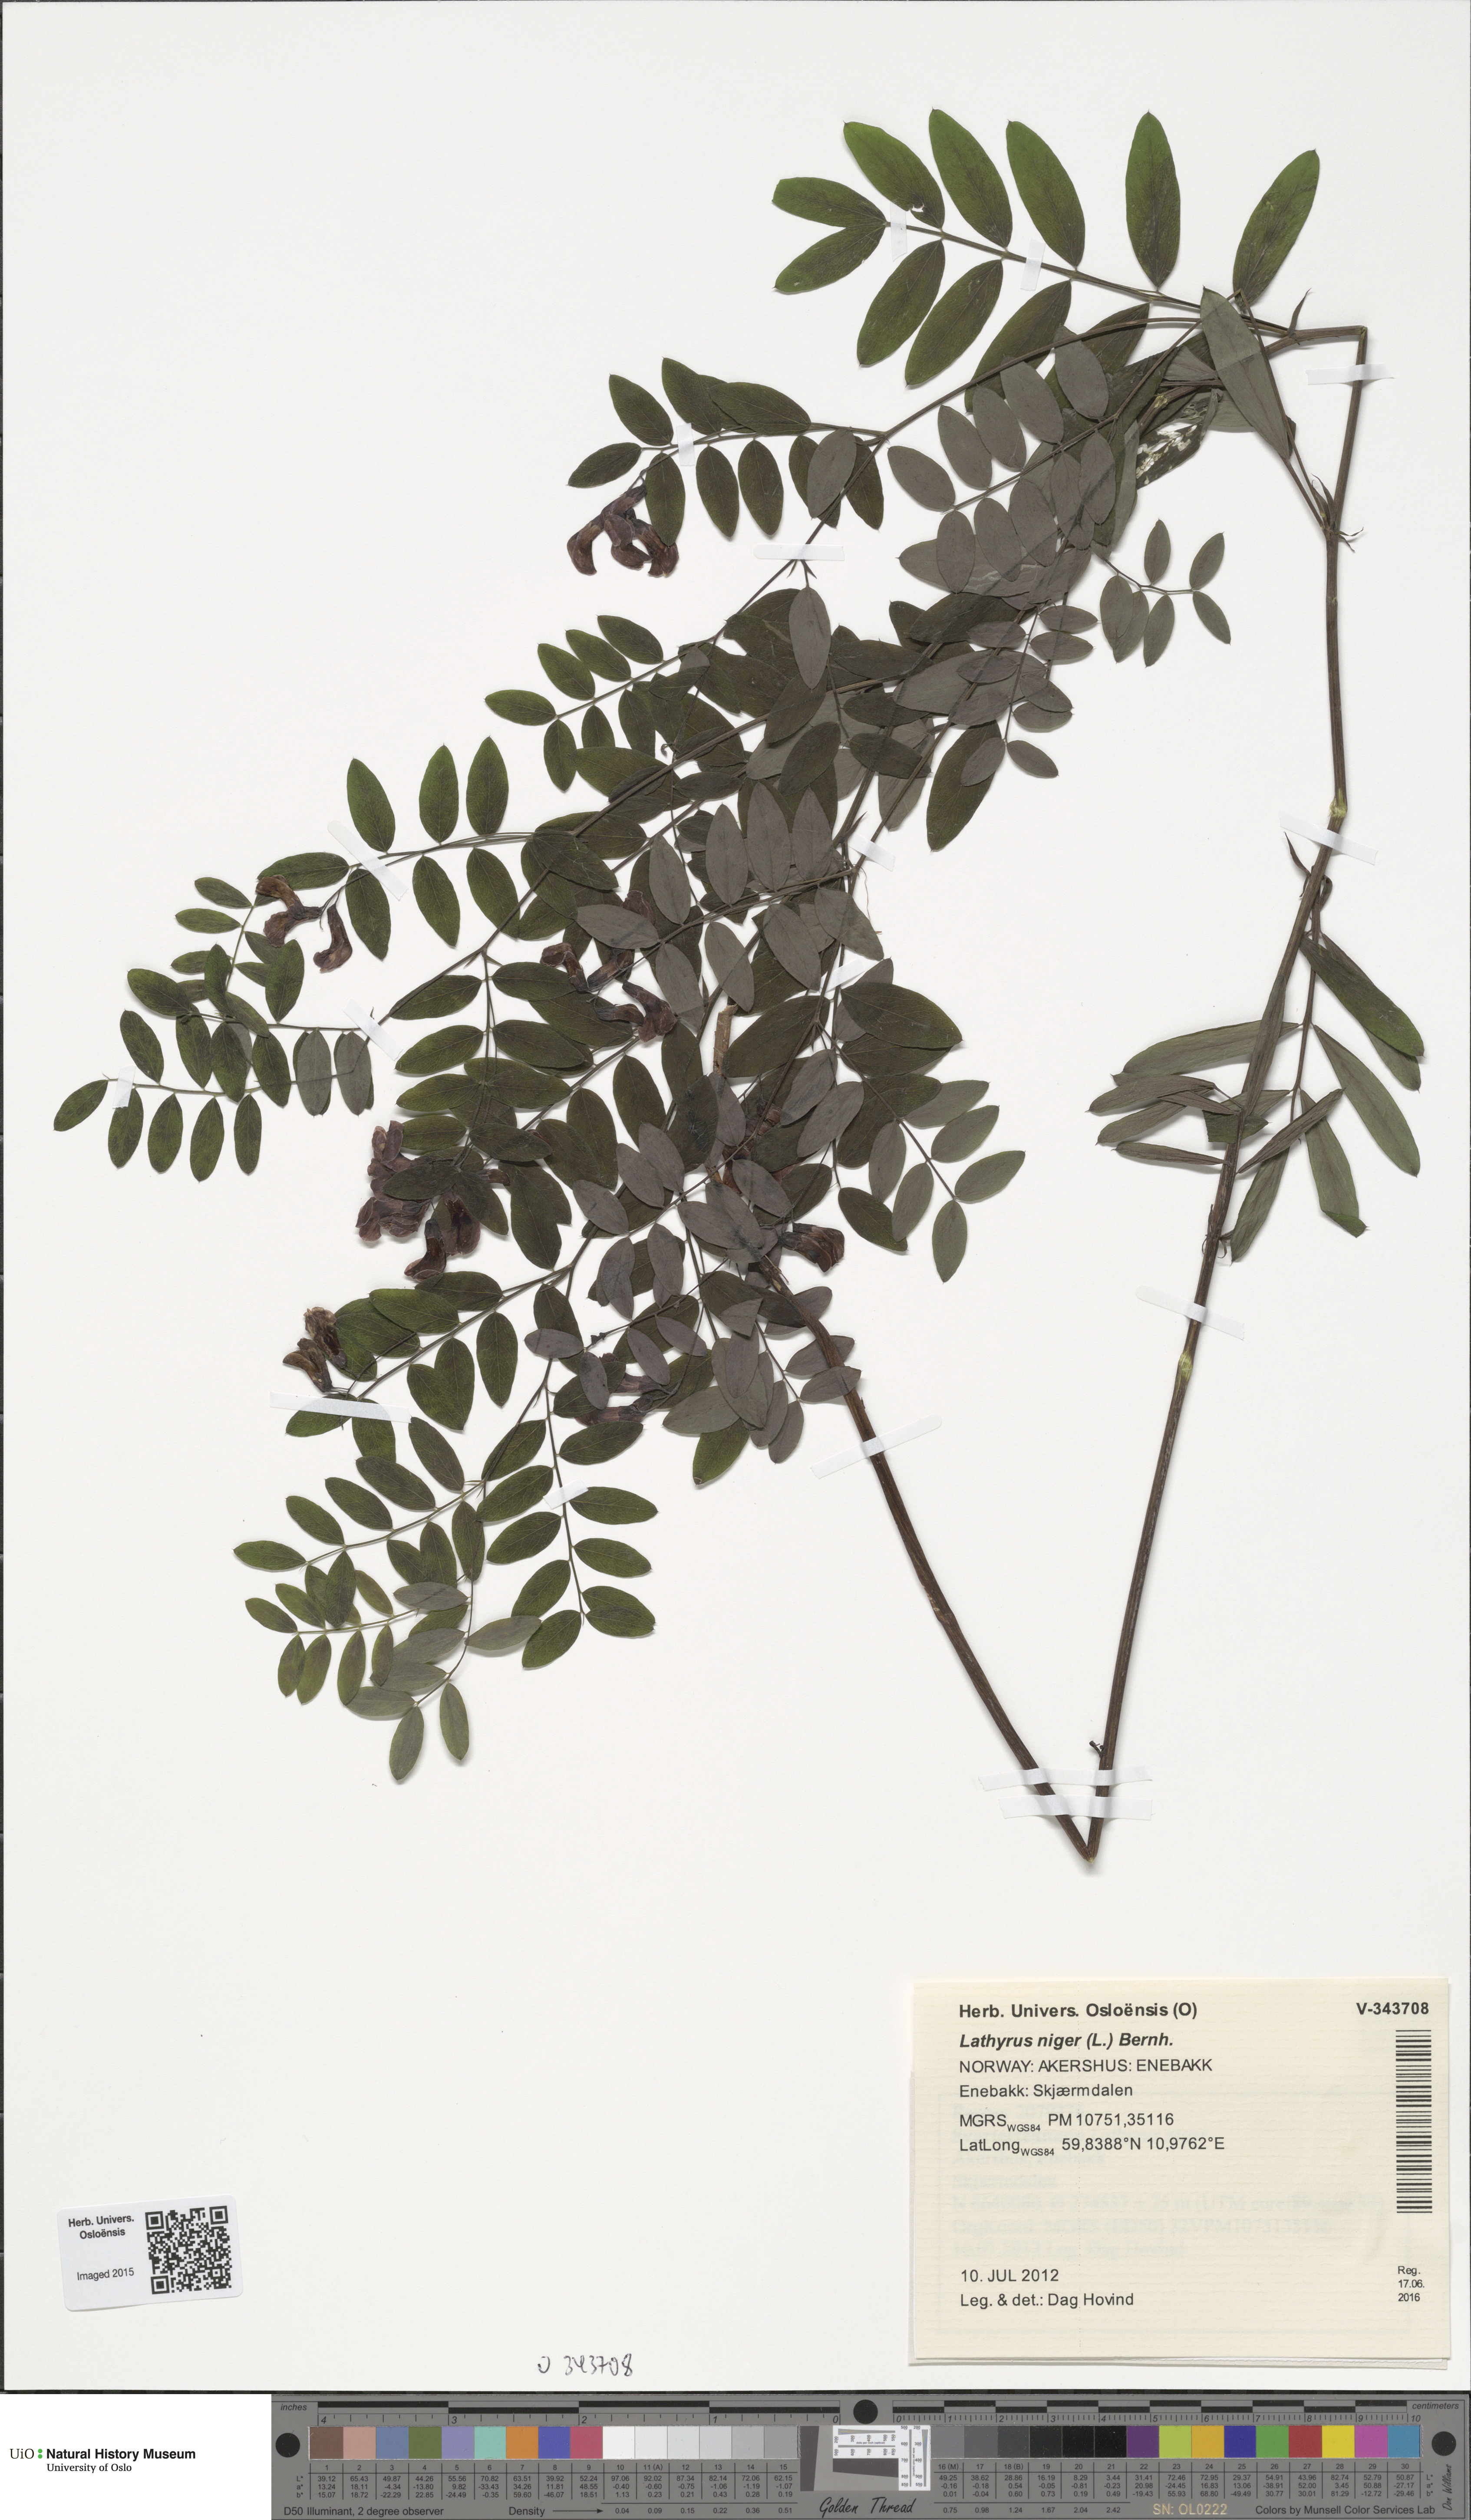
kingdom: Plantae
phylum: Tracheophyta
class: Magnoliopsida
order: Fabales
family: Fabaceae
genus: Lathyrus
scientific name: Lathyrus niger
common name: Black pea
